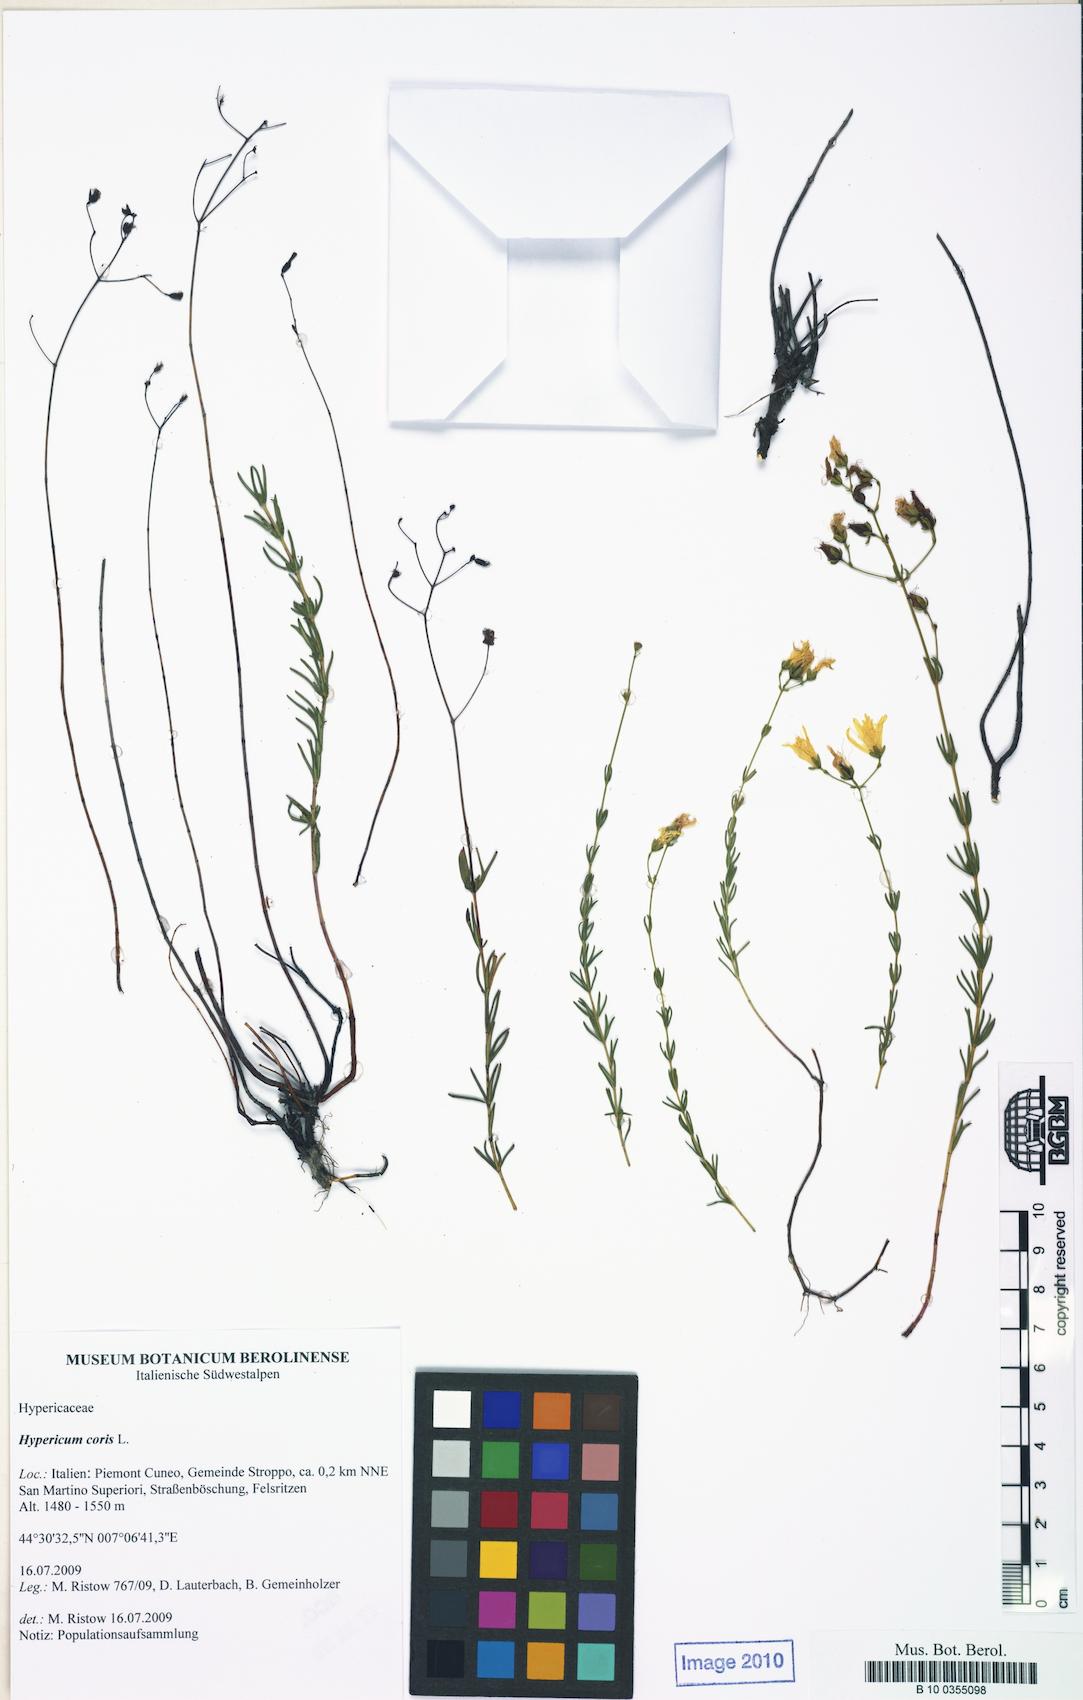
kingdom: Plantae
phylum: Tracheophyta
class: Magnoliopsida
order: Malpighiales
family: Hypericaceae
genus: Hypericum
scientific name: Hypericum coris
